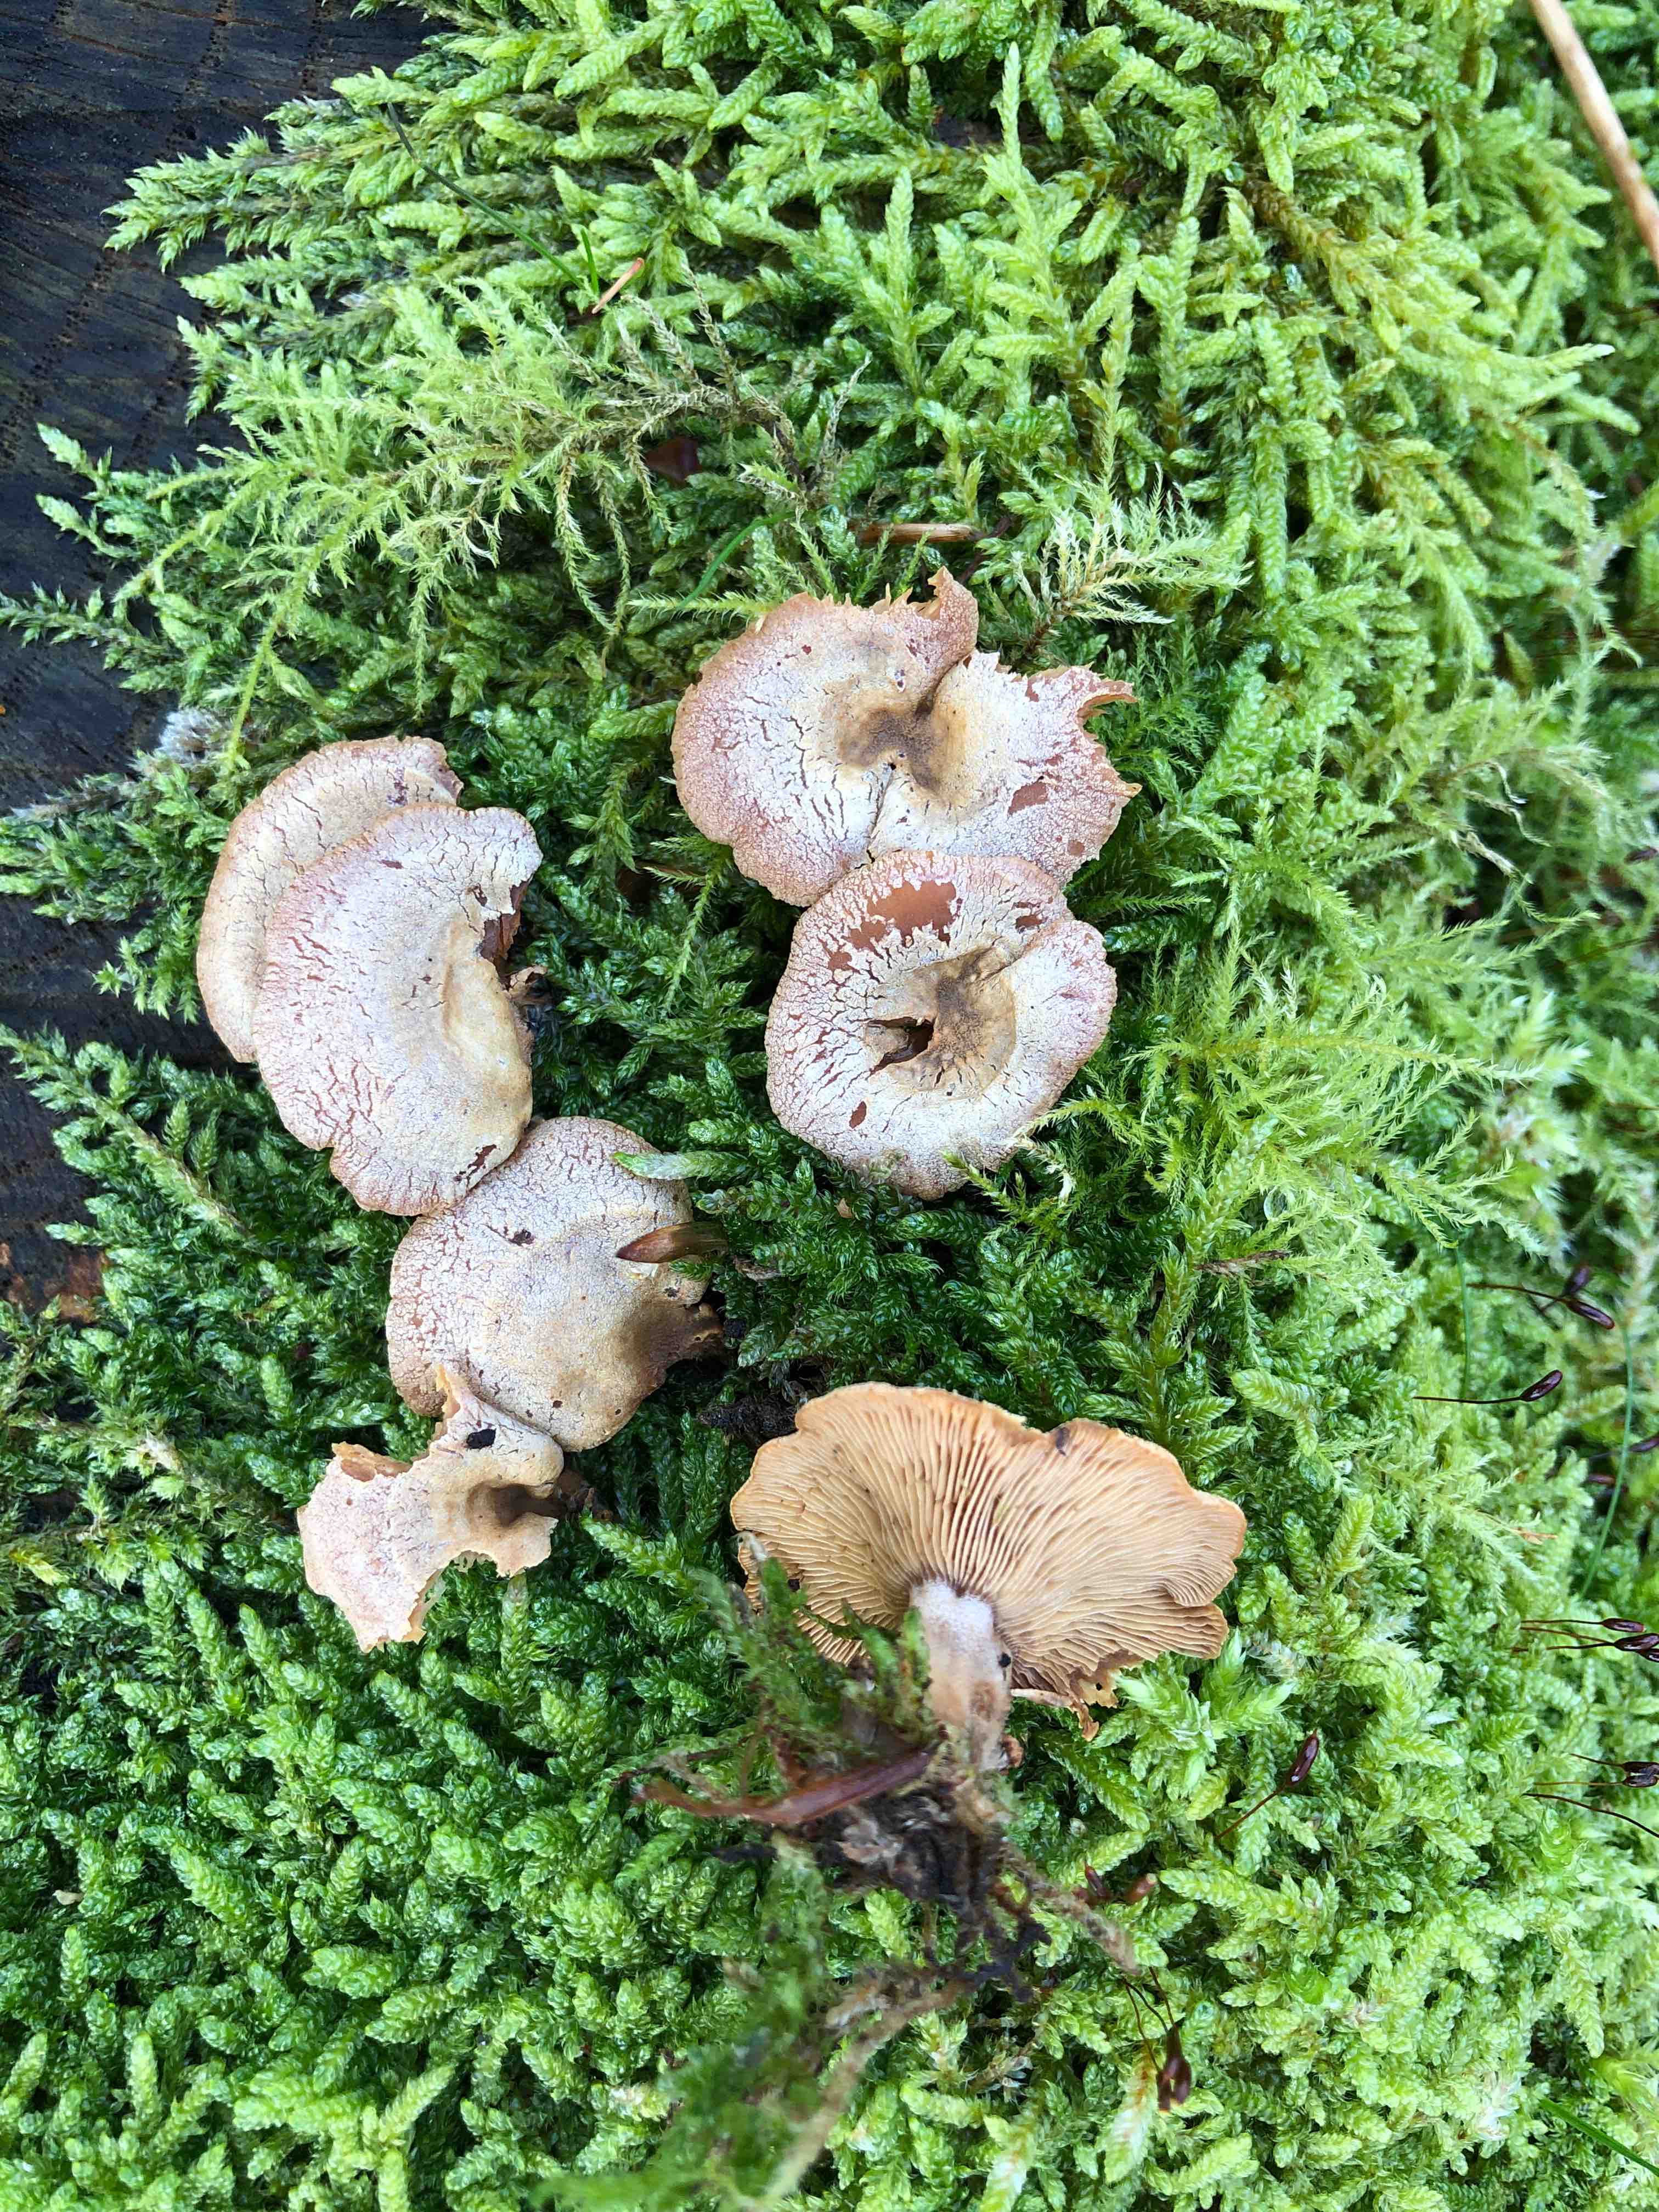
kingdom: Fungi
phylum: Basidiomycota
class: Agaricomycetes
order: Agaricales
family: Mycenaceae
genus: Panellus
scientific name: Panellus stipticus
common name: kliddet epaulethat
